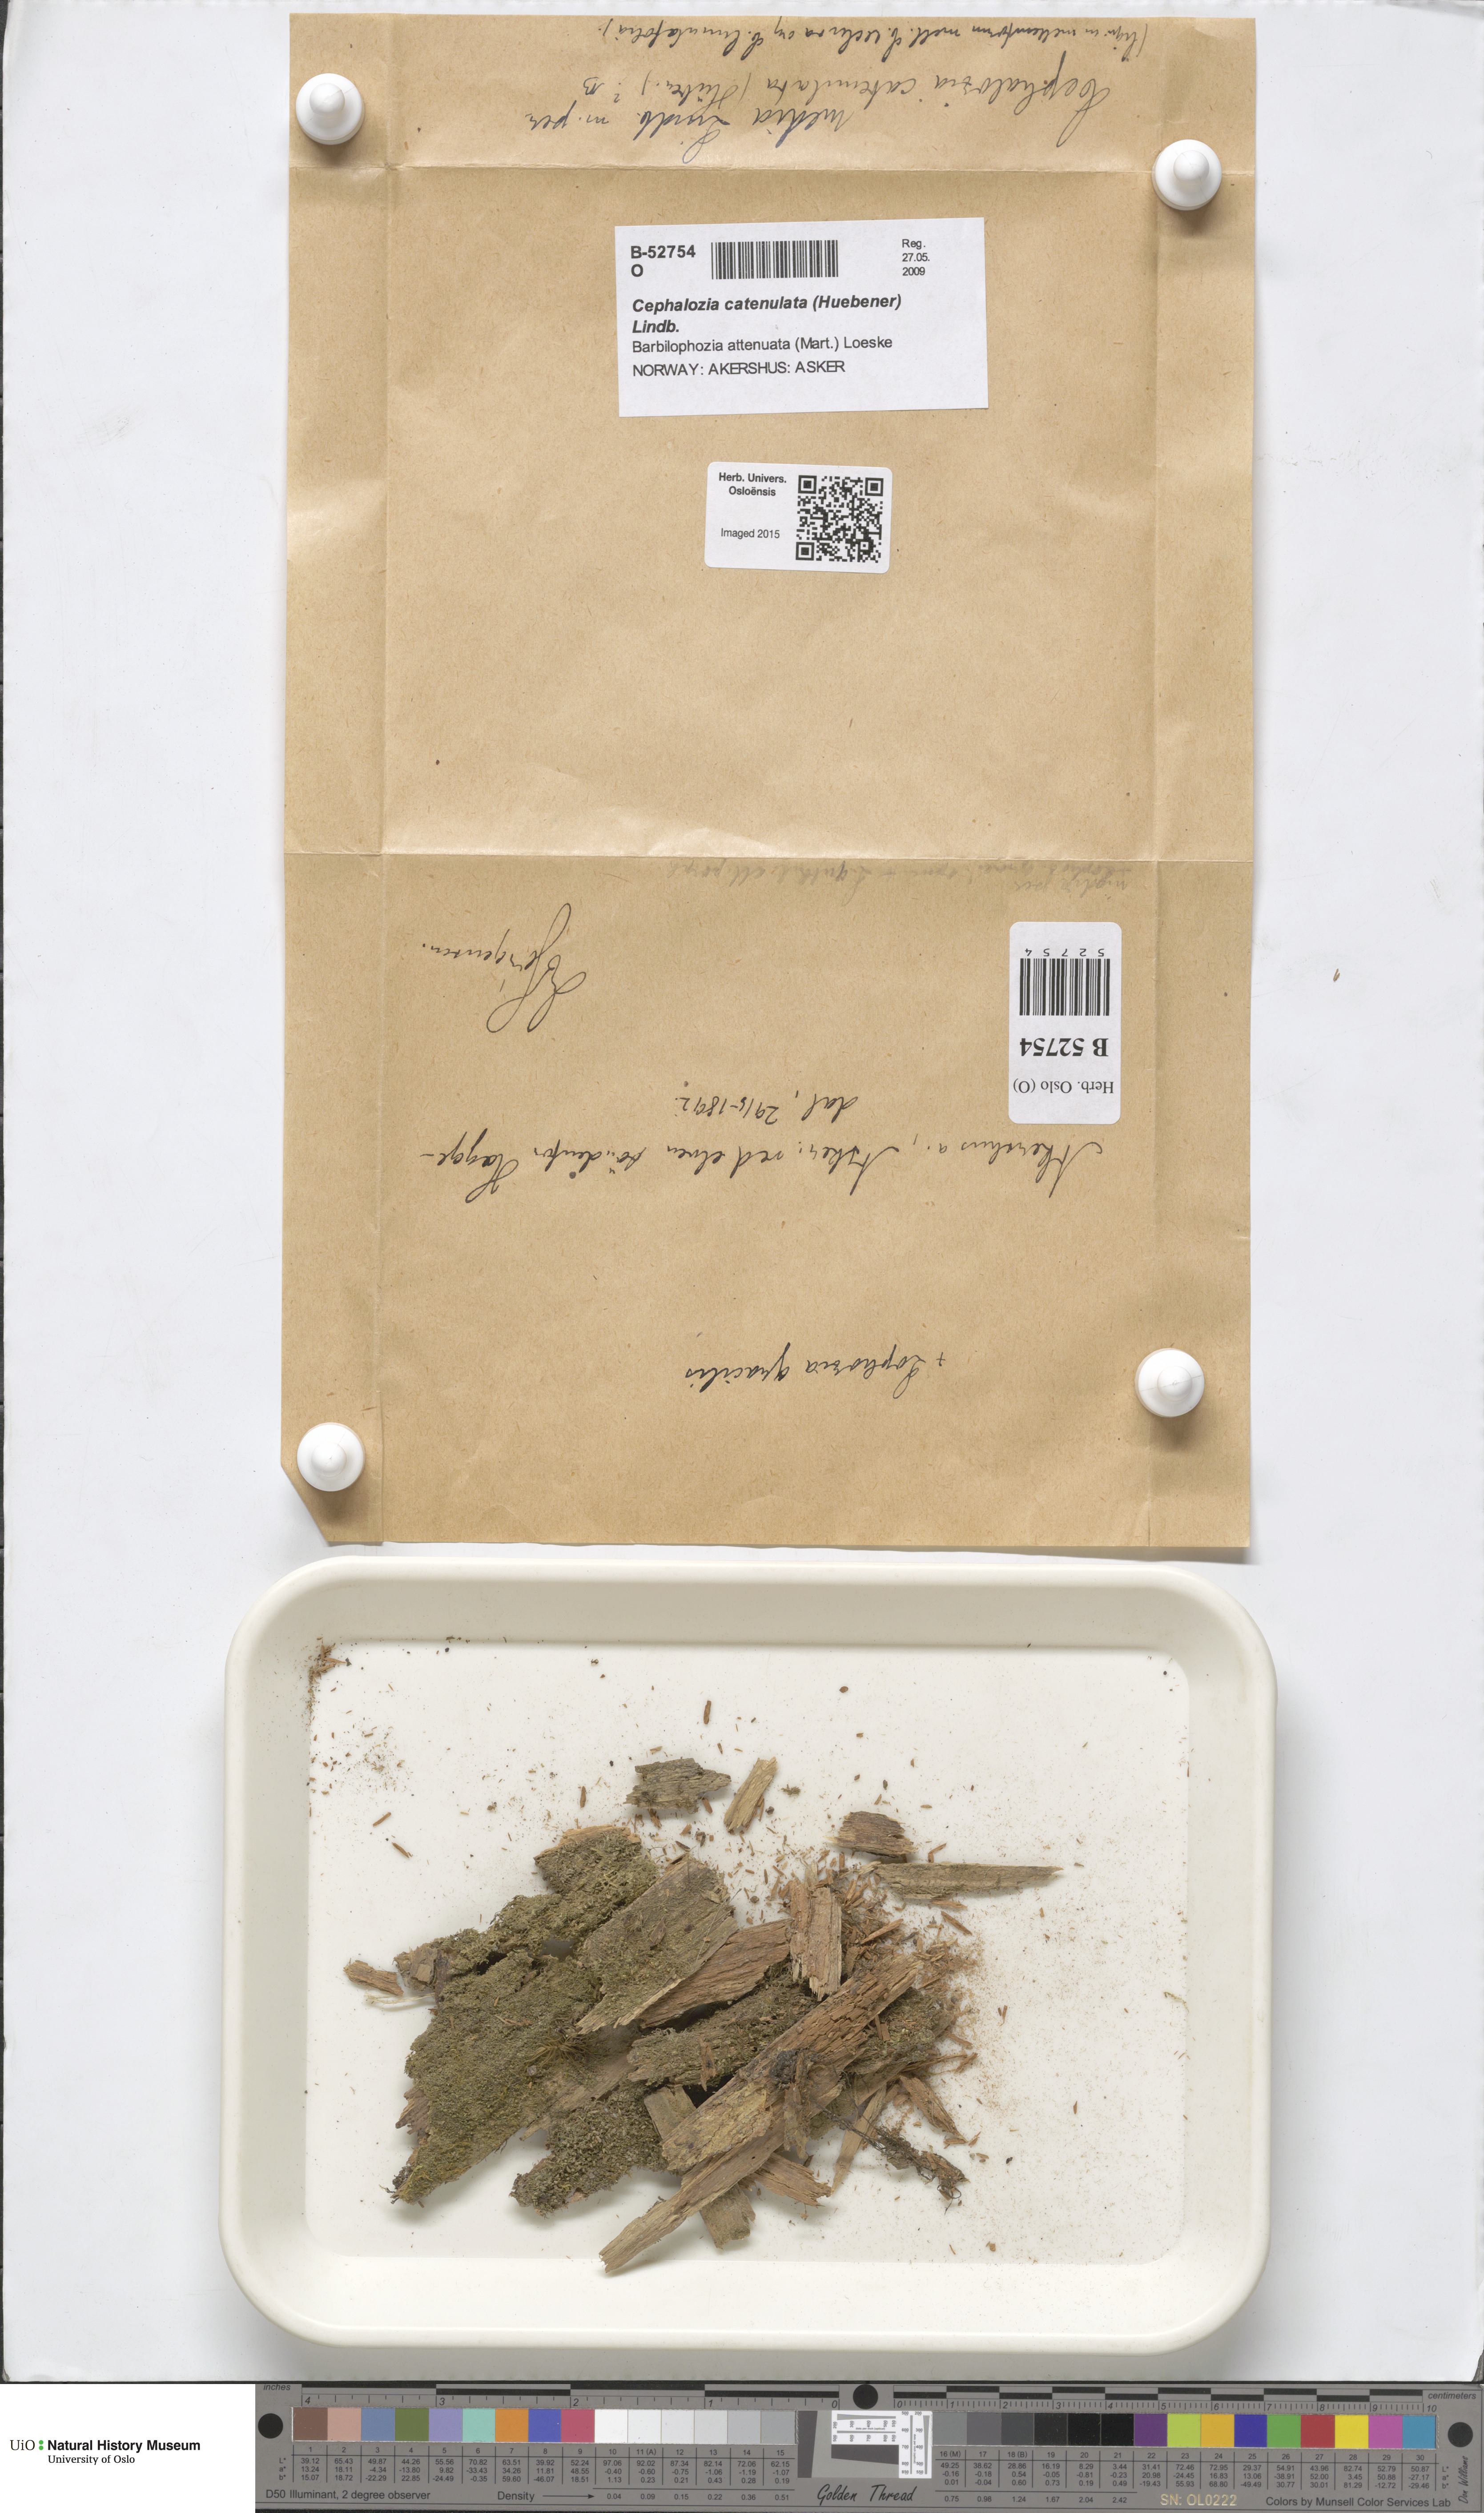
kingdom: Plantae
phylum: Marchantiophyta
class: Jungermanniopsida
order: Jungermanniales
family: Cephaloziaceae
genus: Fuscocephaloziopsis
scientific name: Fuscocephaloziopsis catenulata
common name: Chain pincerwort
